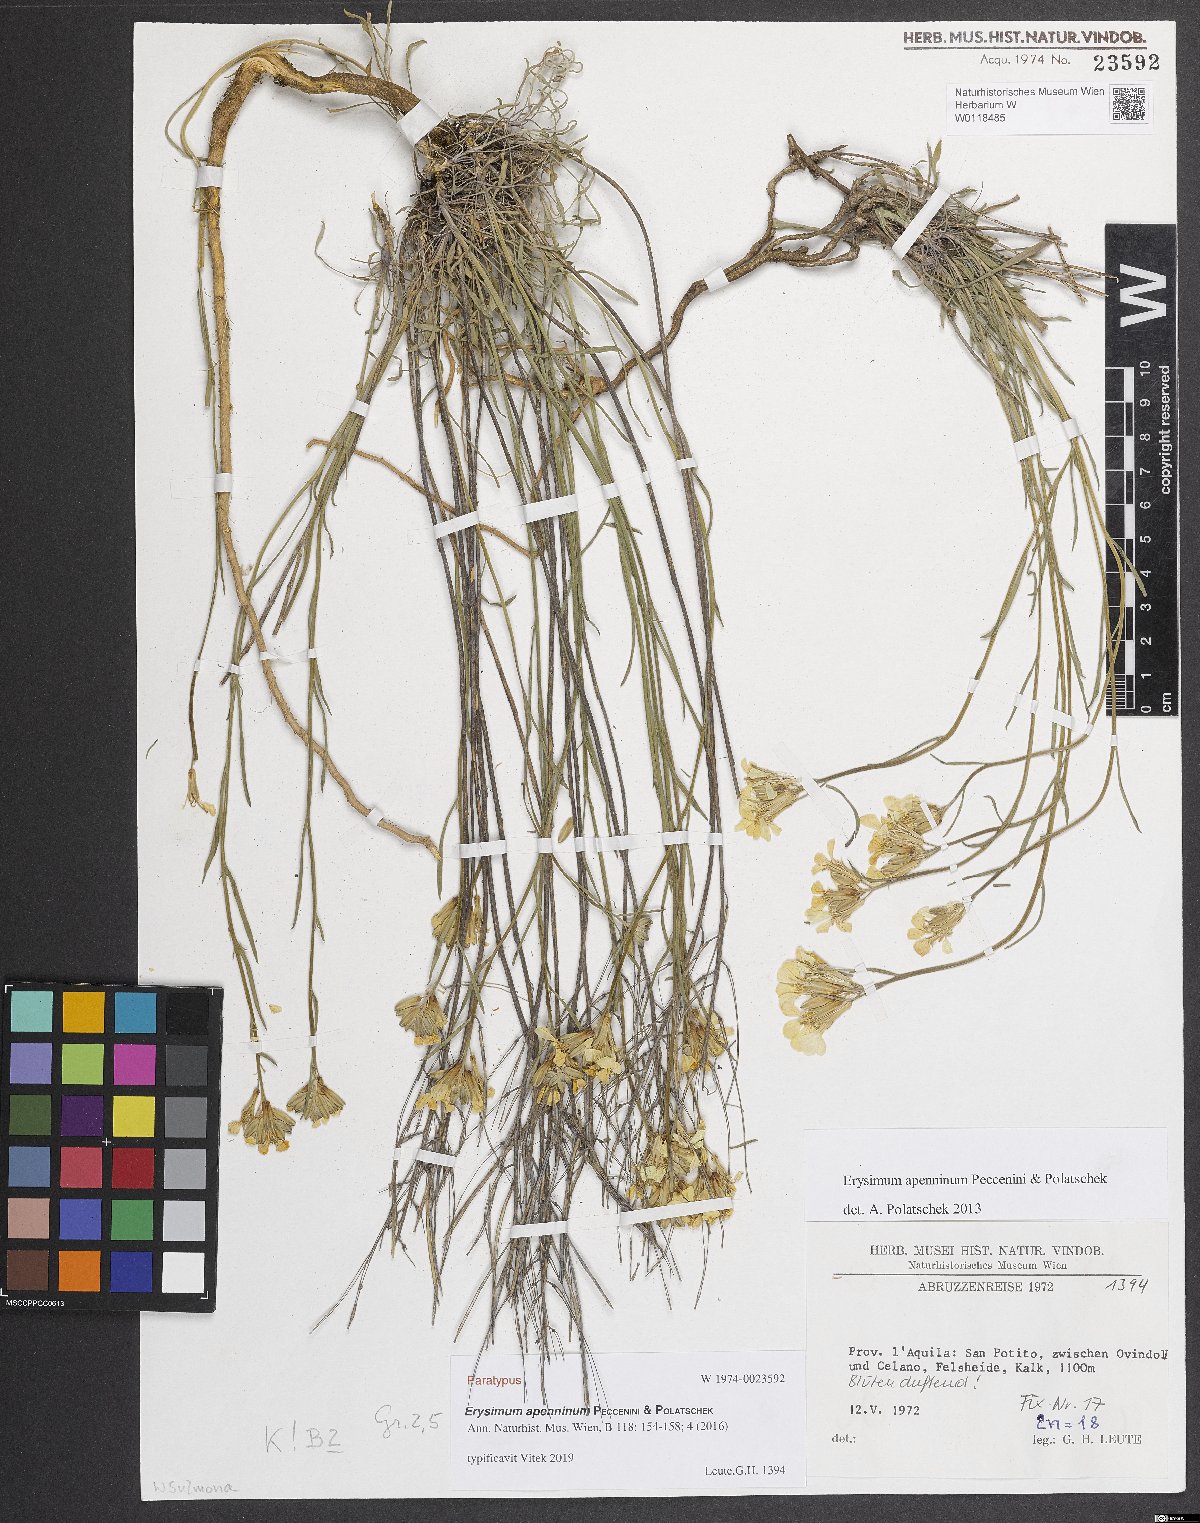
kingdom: Plantae
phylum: Tracheophyta
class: Magnoliopsida
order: Brassicales
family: Brassicaceae
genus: Erysimum
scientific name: Erysimum apenninum
